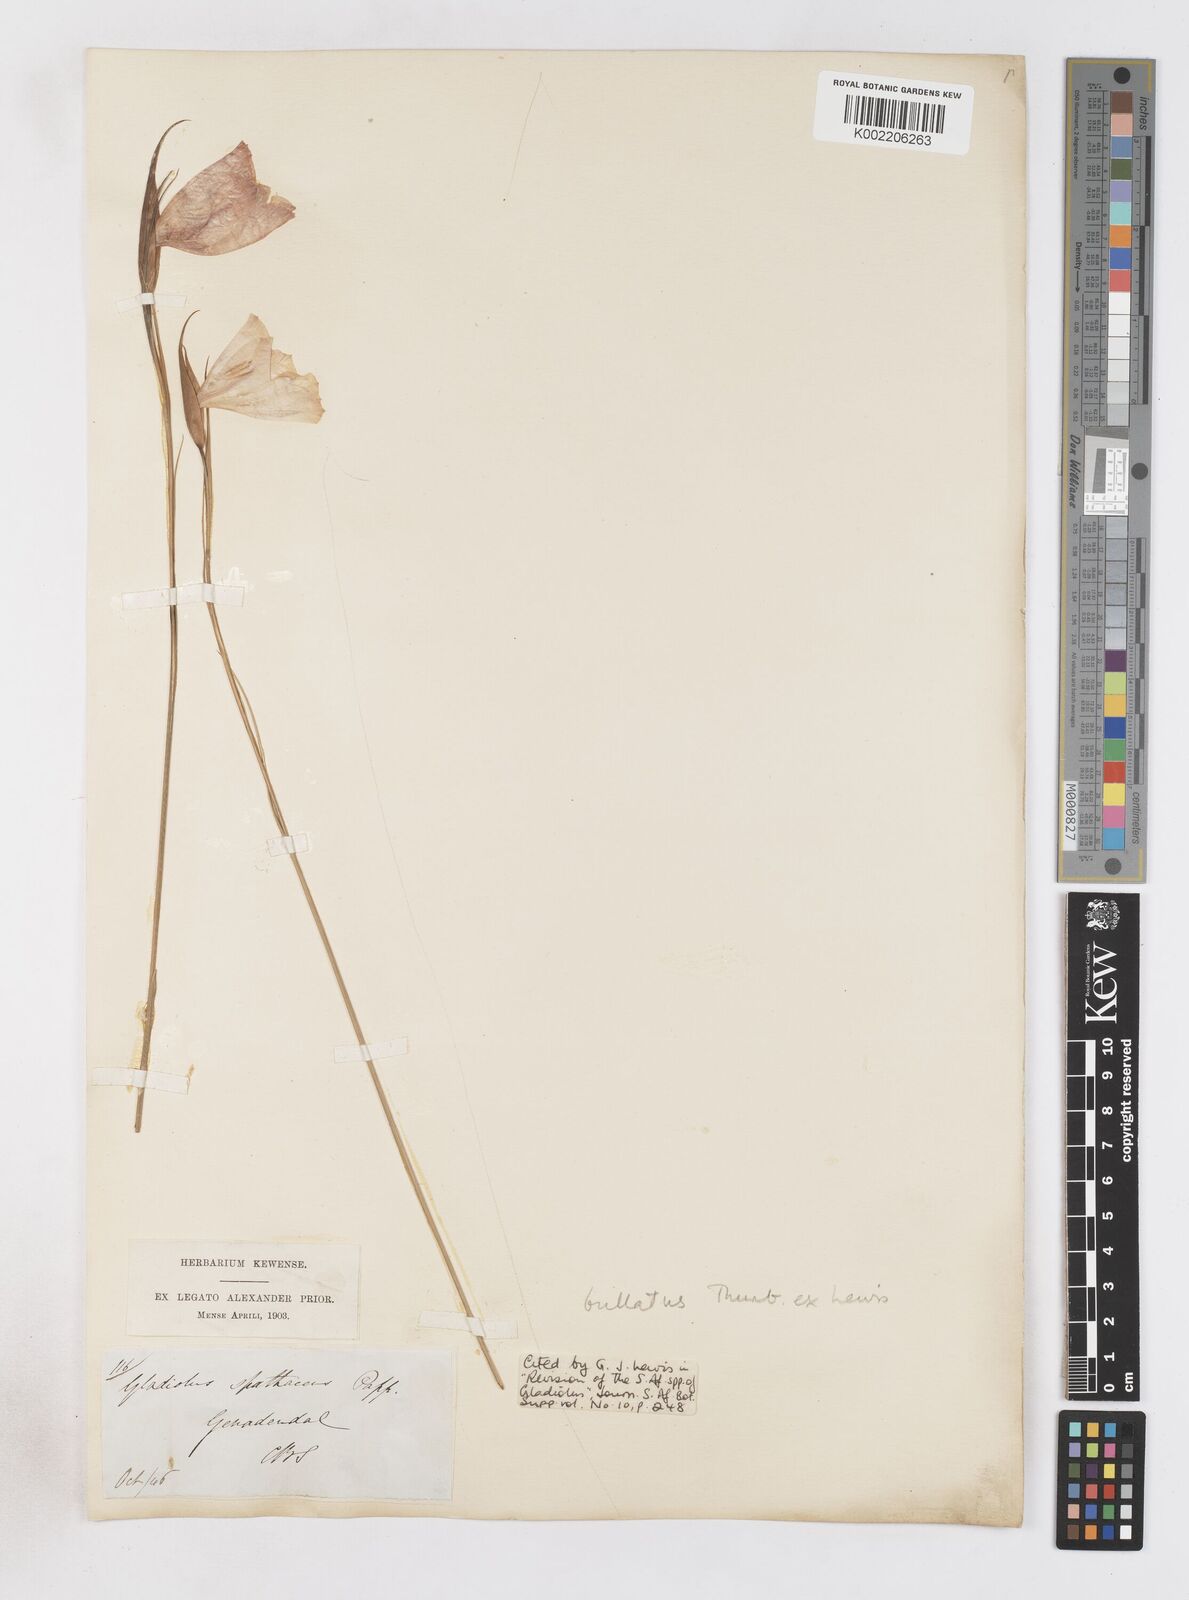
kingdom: Plantae
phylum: Tracheophyta
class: Liliopsida
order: Asparagales
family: Iridaceae
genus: Gladiolus
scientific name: Gladiolus bullatus
